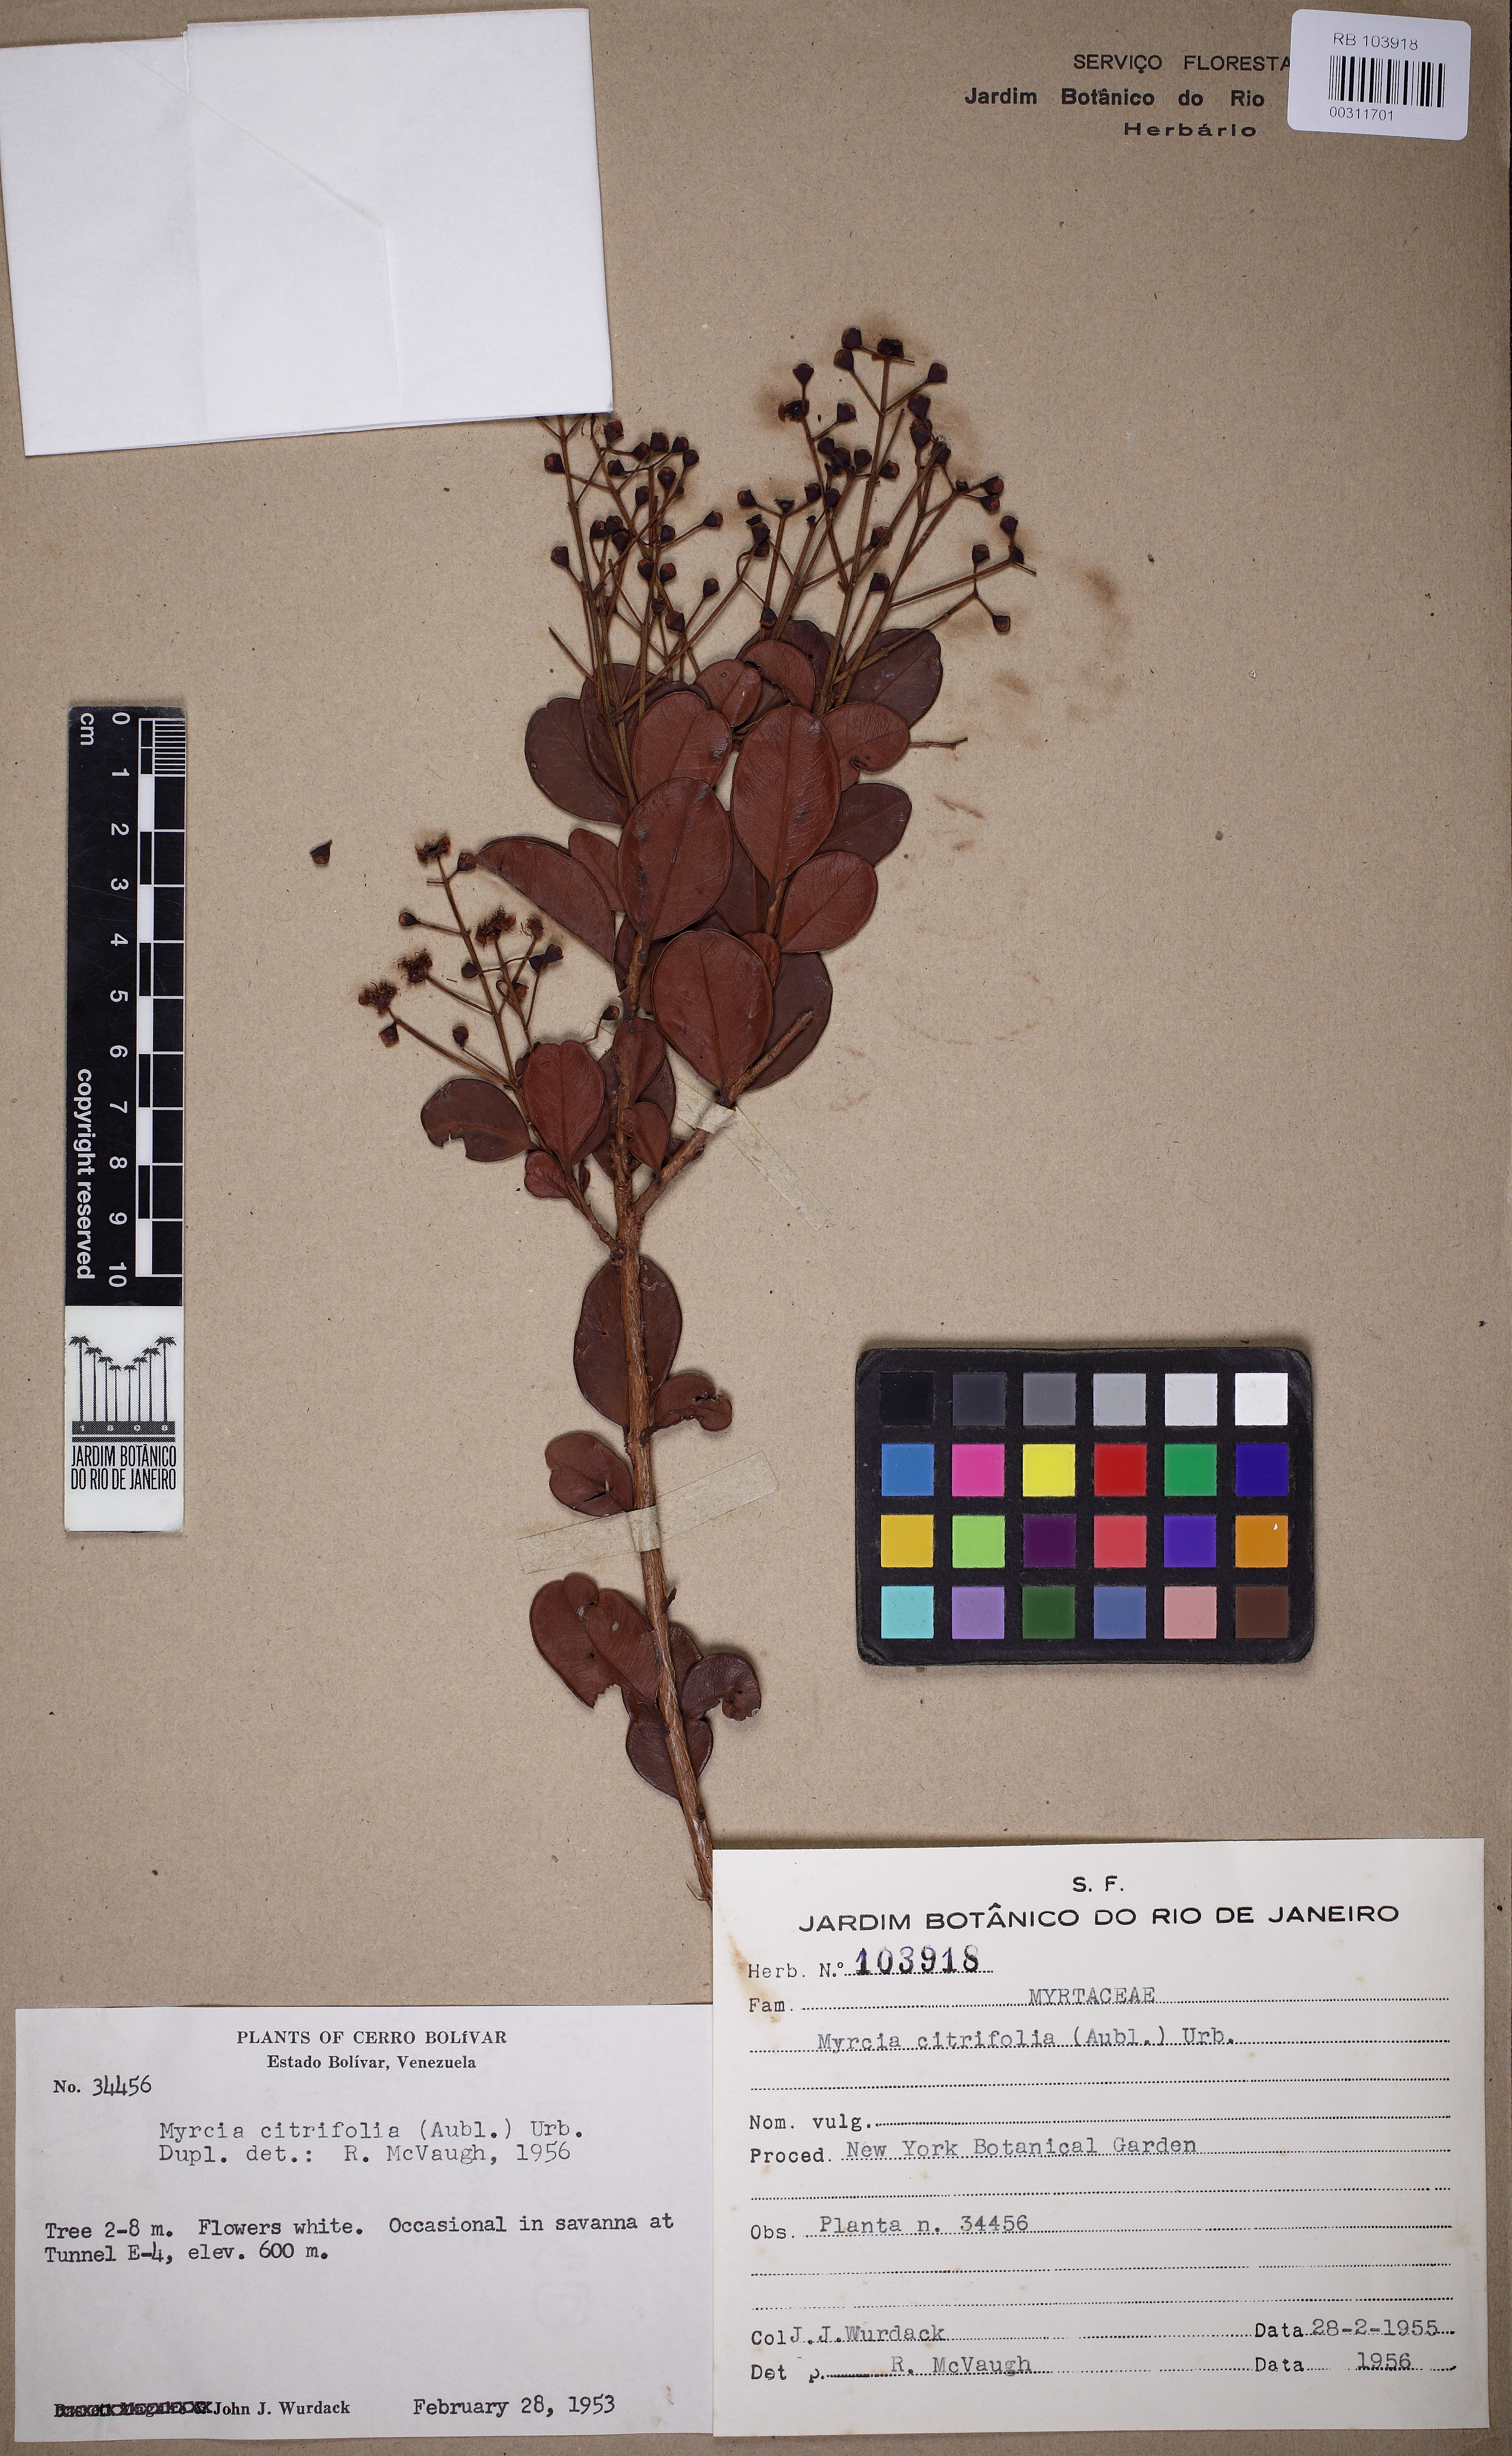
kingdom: Plantae
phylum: Tracheophyta
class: Magnoliopsida
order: Myrtales
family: Myrtaceae
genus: Myrcia
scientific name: Myrcia guianensis
